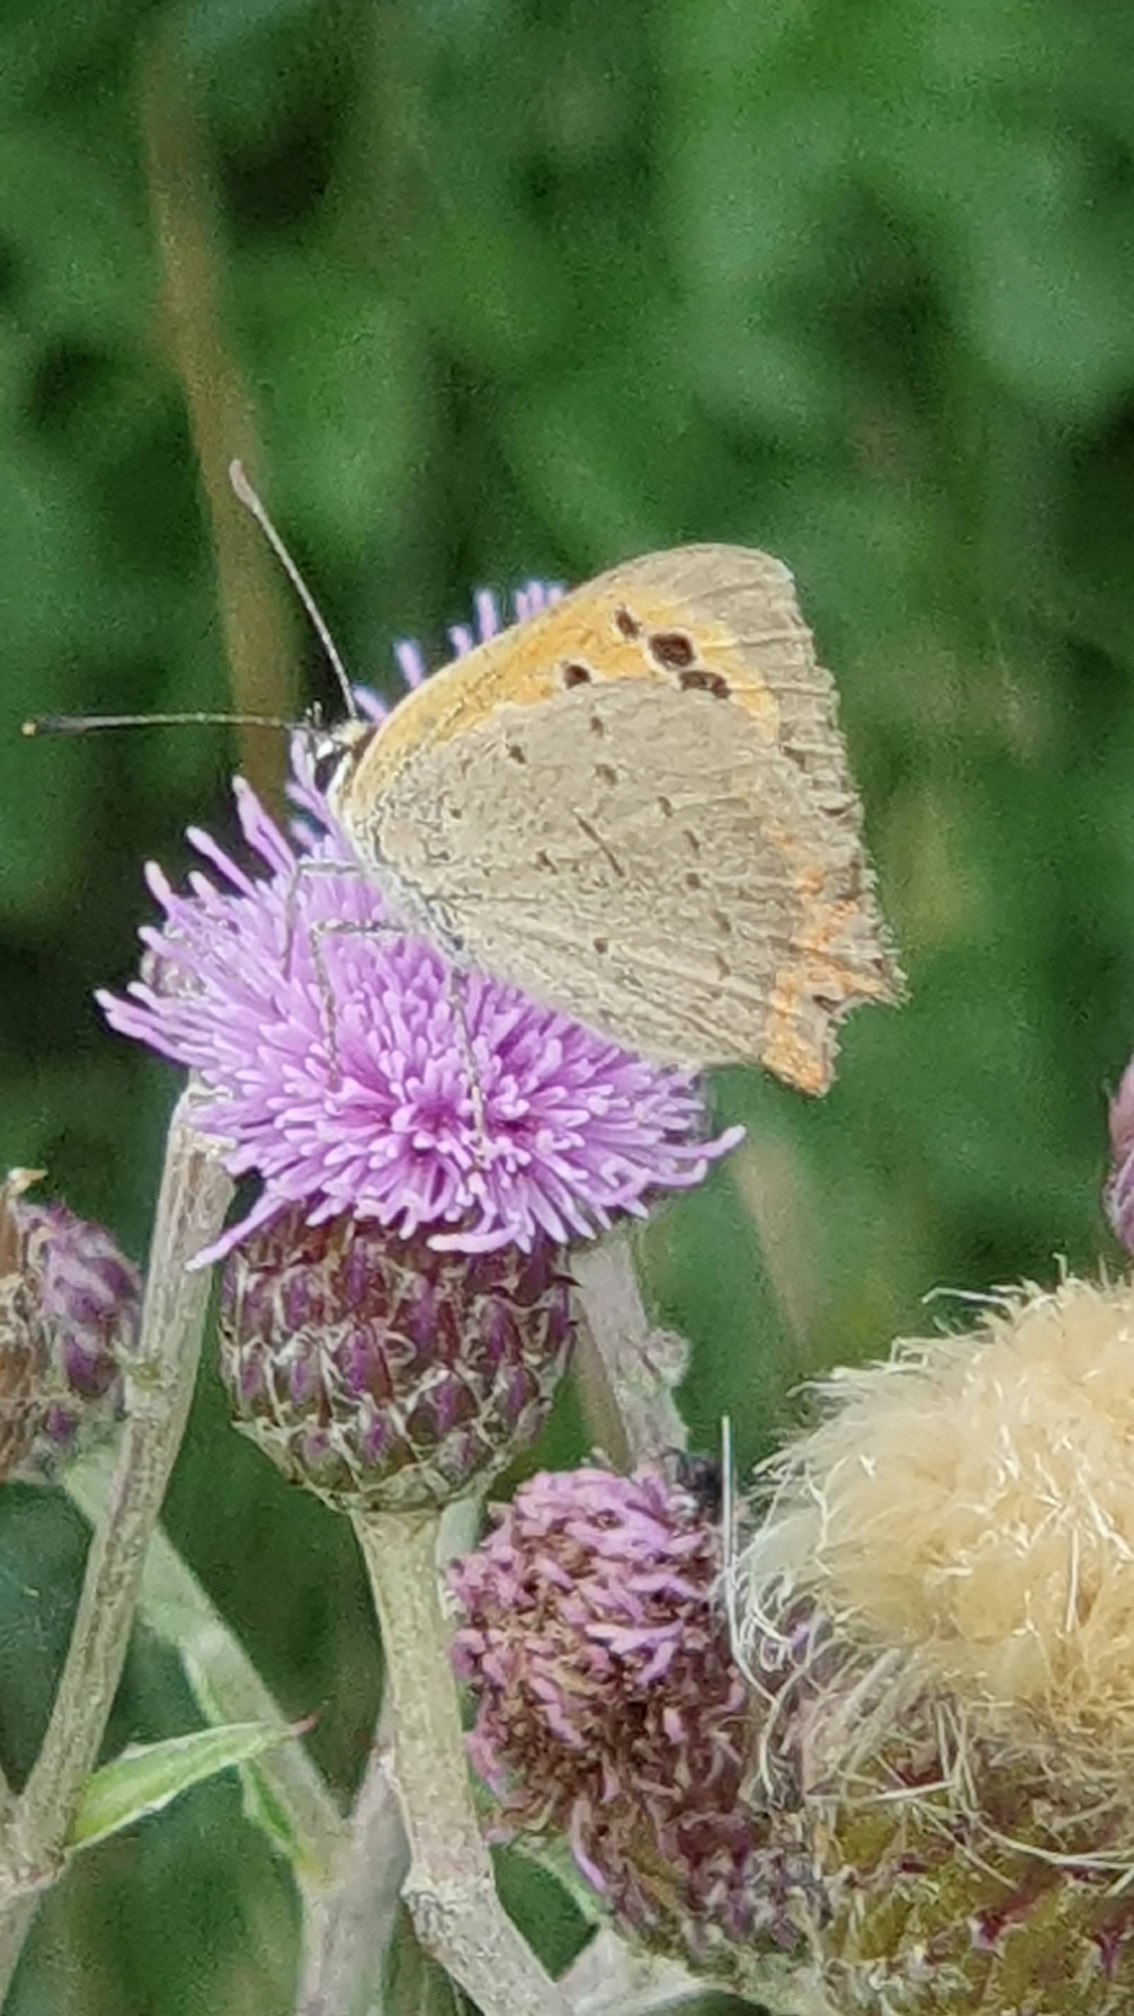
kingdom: Animalia
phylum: Arthropoda
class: Insecta
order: Lepidoptera
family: Lycaenidae
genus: Lycaena
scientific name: Lycaena phlaeas
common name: Lille ildfugl
